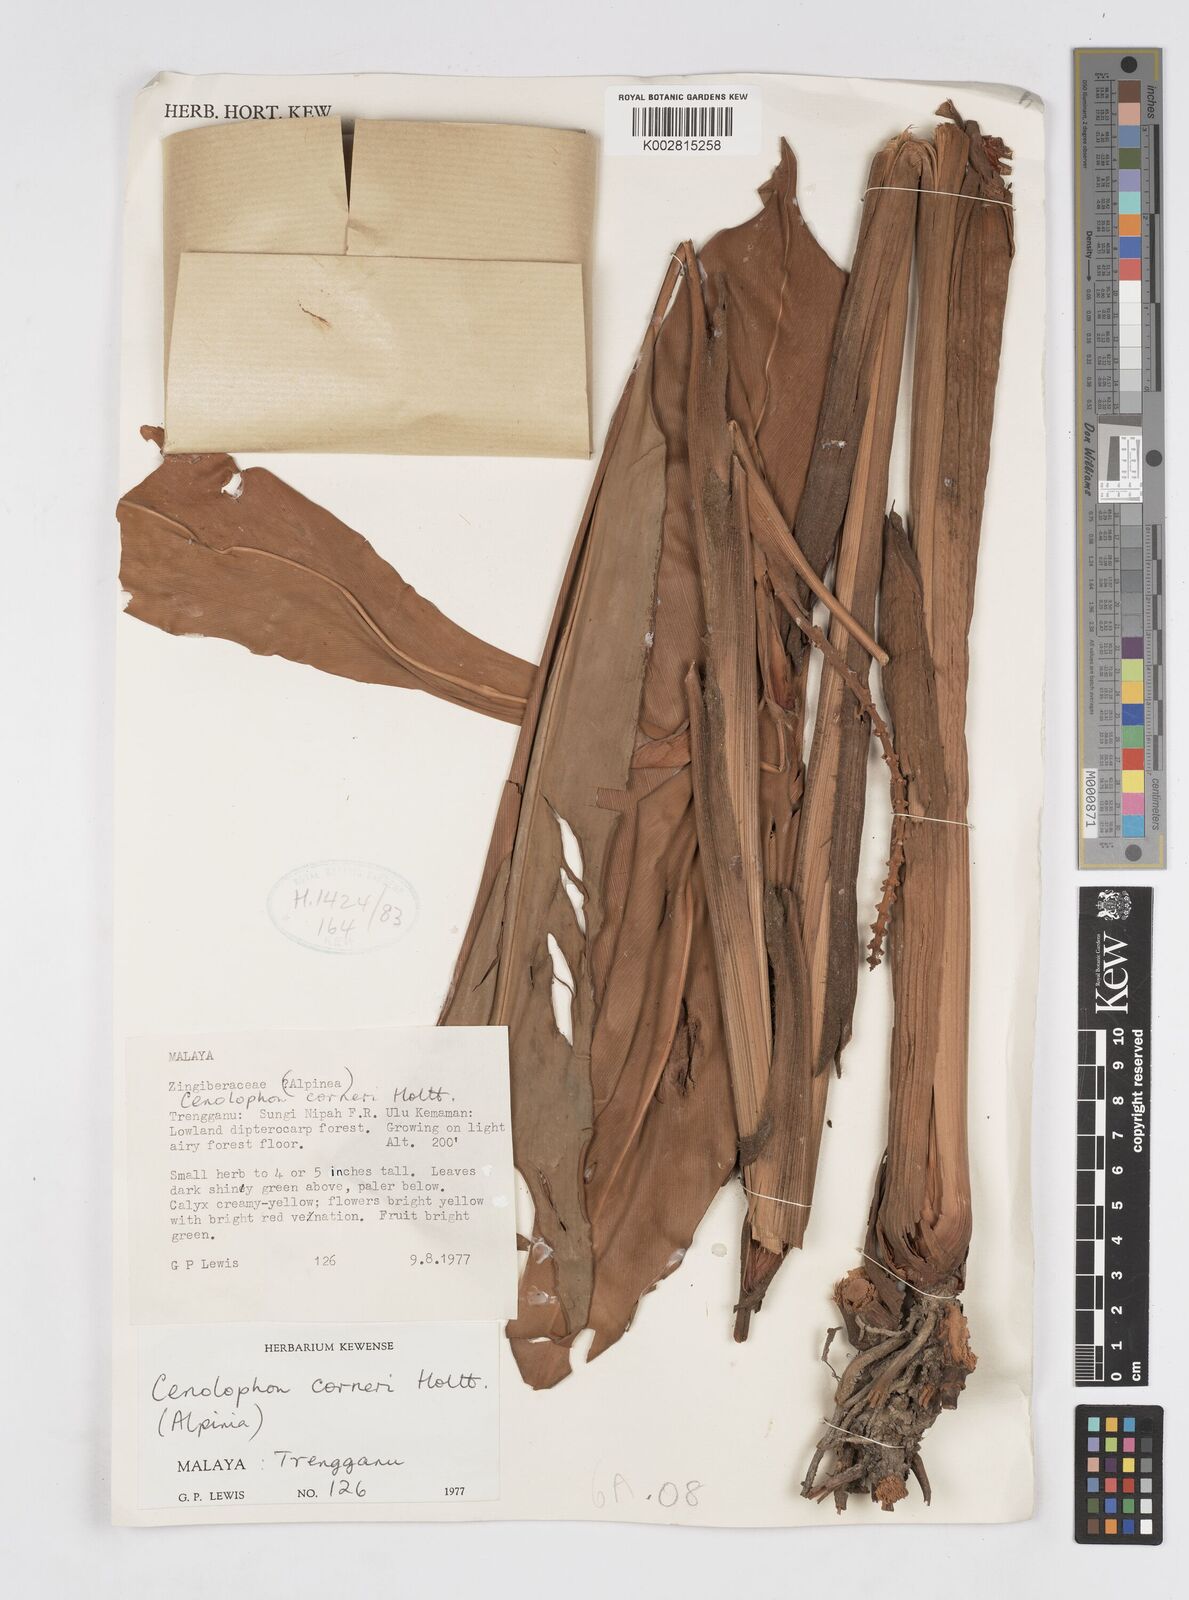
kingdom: Plantae
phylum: Tracheophyta
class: Liliopsida
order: Zingiberales
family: Zingiberaceae
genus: Alpinia
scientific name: Alpinia corneri
